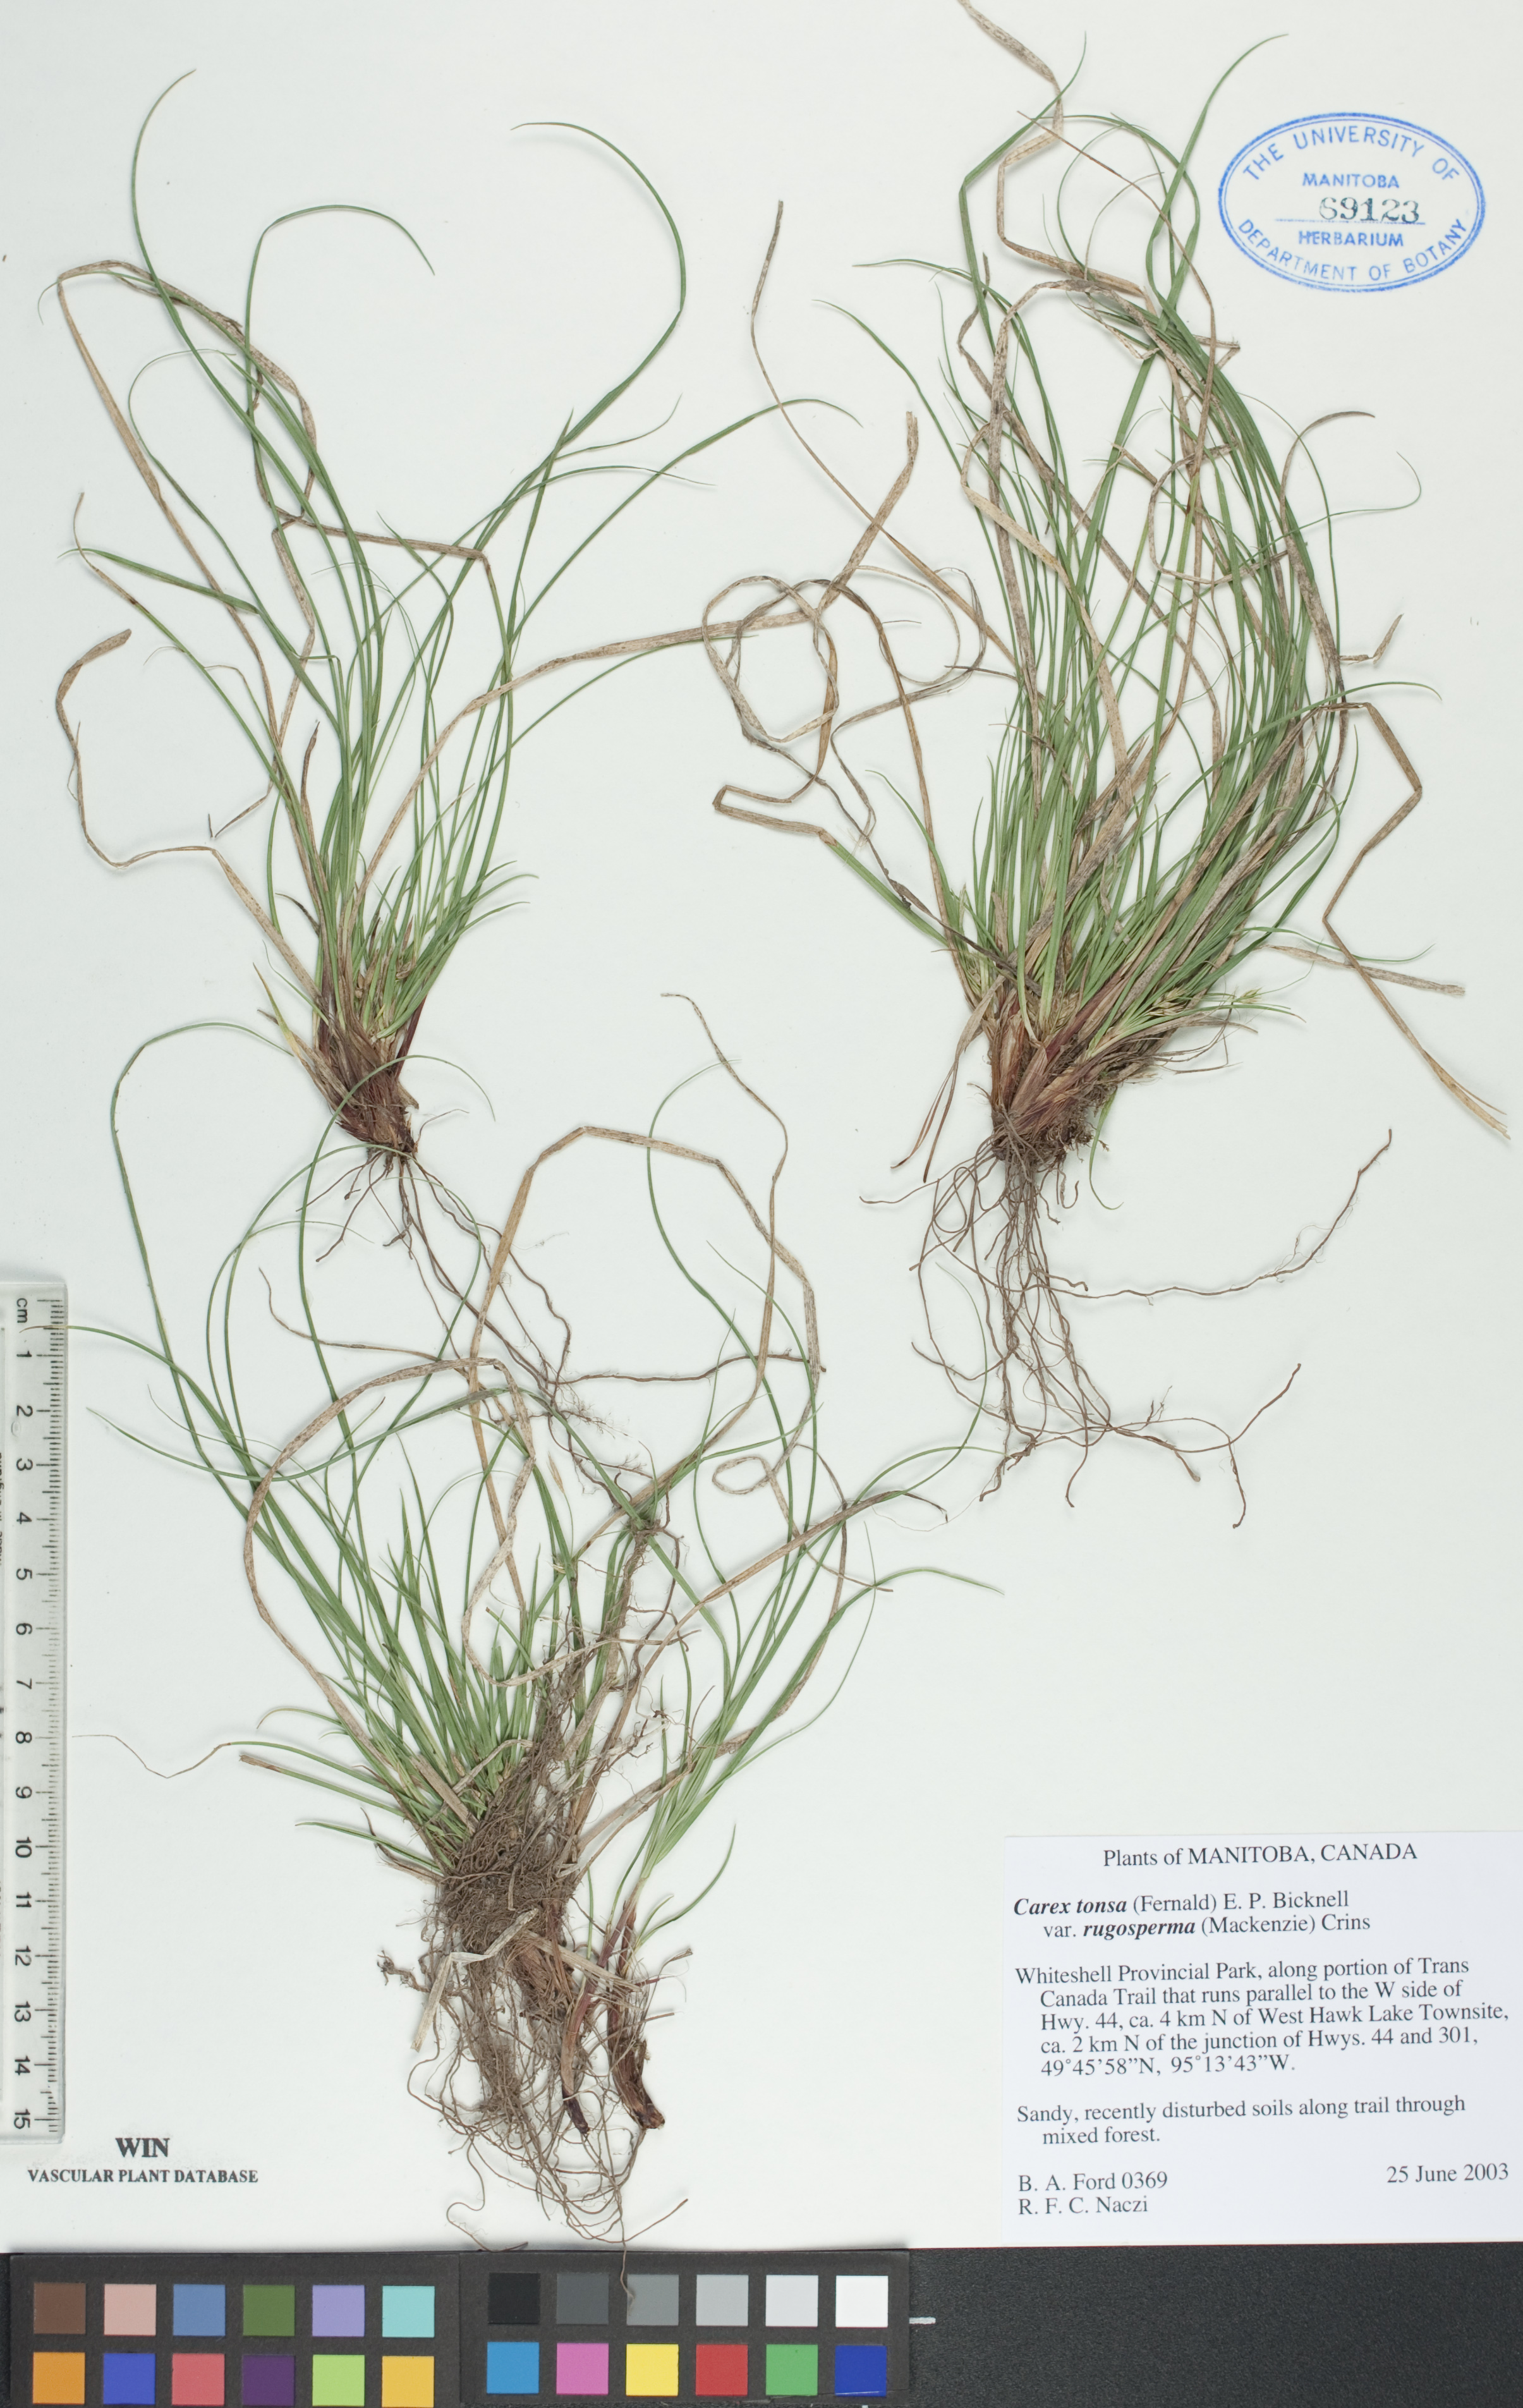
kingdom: Plantae
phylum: Tracheophyta
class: Liliopsida
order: Poales
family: Cyperaceae
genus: Carex
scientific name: Carex tonsa
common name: Bald sedge
